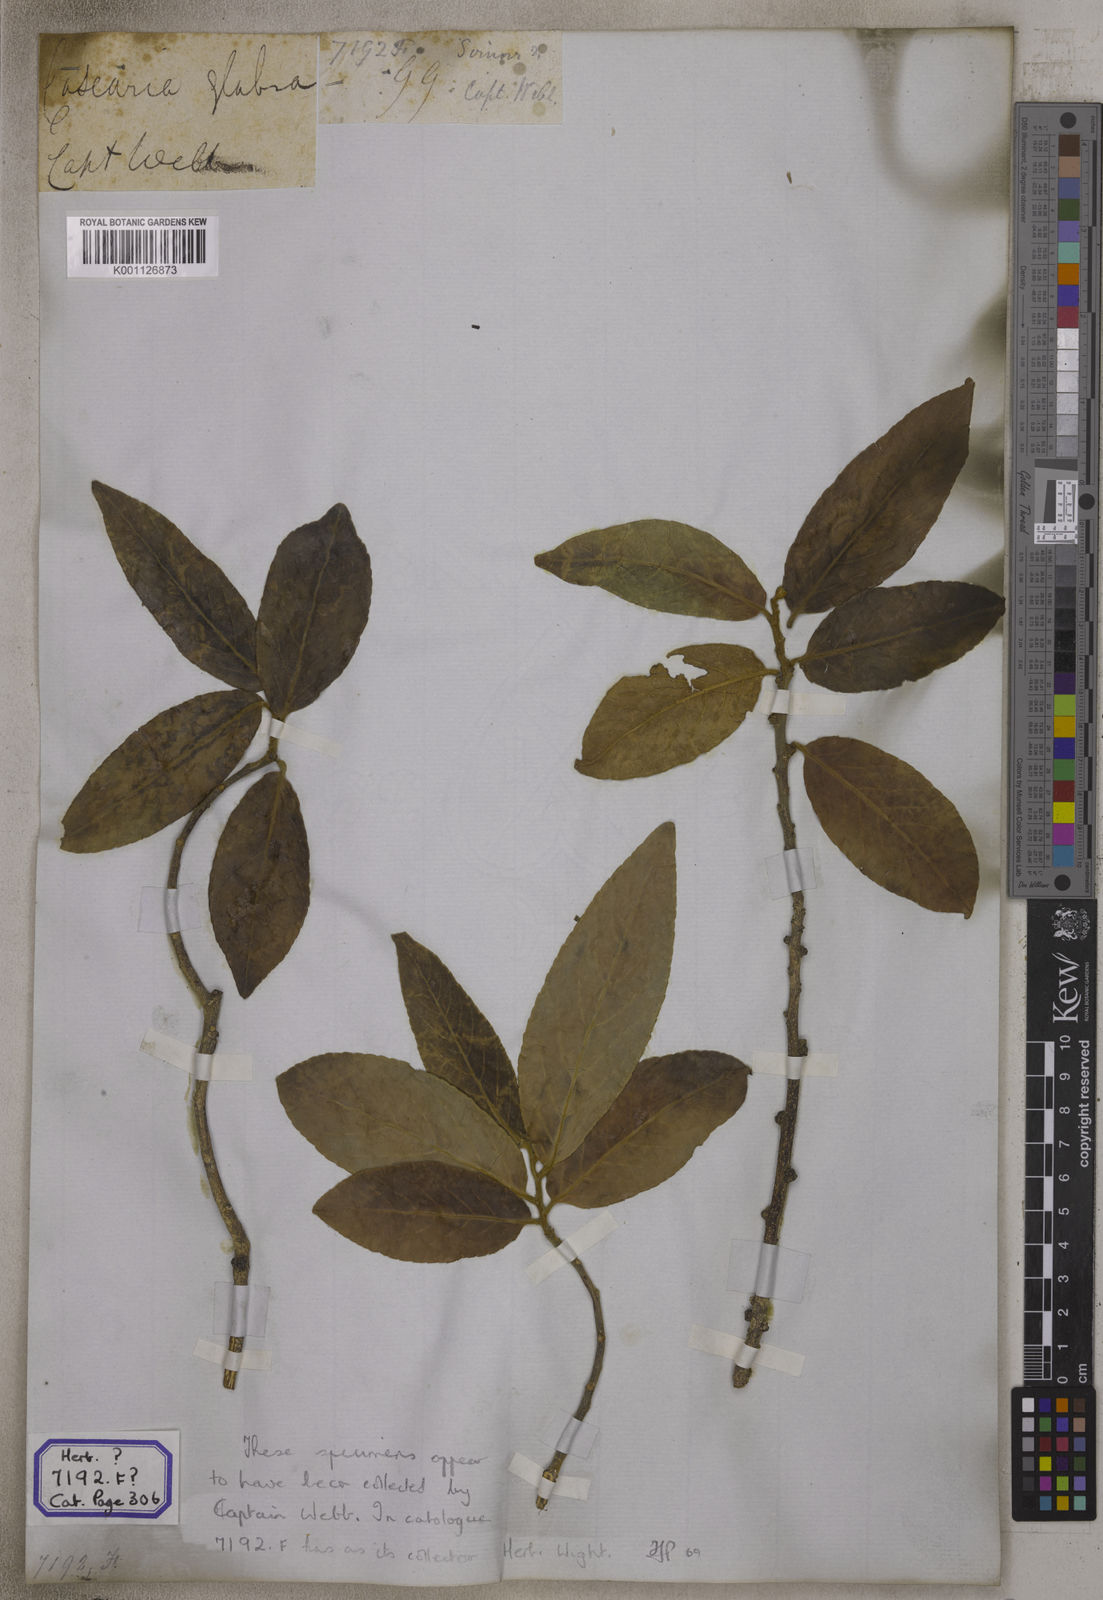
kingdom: Plantae
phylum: Tracheophyta
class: Magnoliopsida
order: Malpighiales
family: Salicaceae
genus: Casearia
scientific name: Casearia
